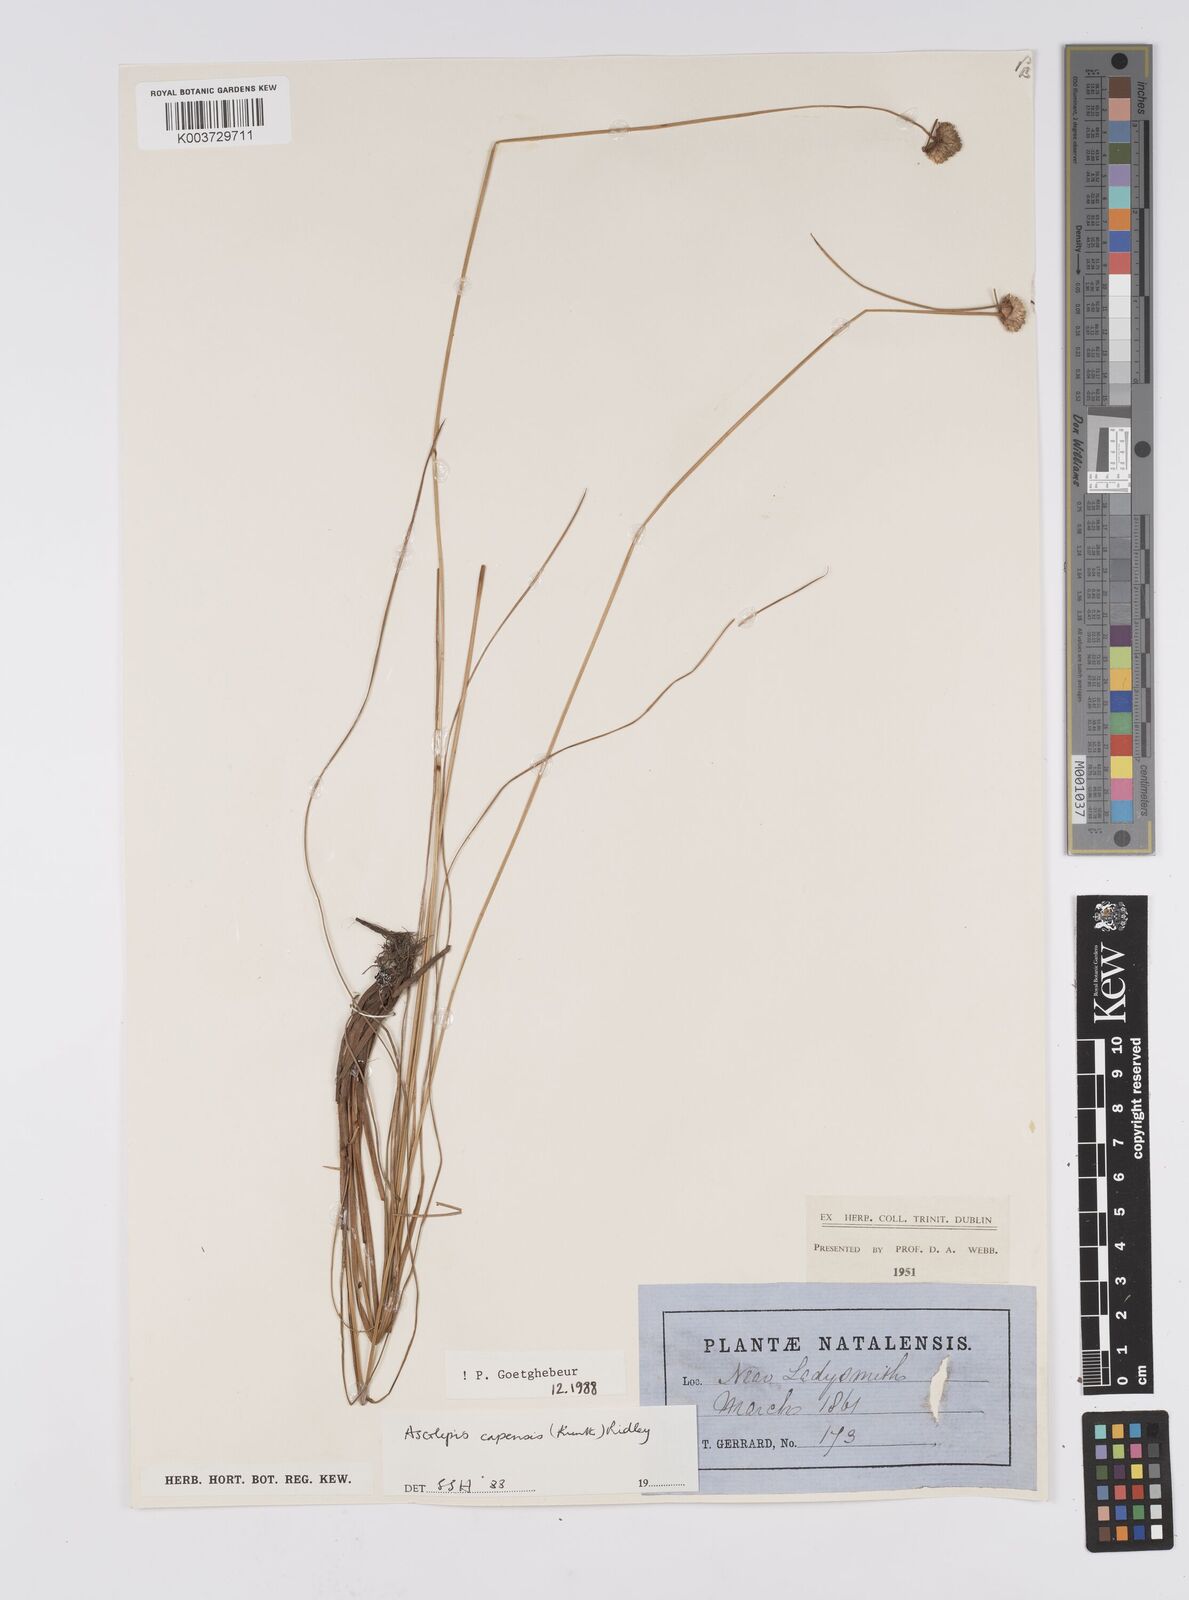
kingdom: Plantae
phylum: Tracheophyta
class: Liliopsida
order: Poales
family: Cyperaceae
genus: Cyperus
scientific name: Cyperus capensis
